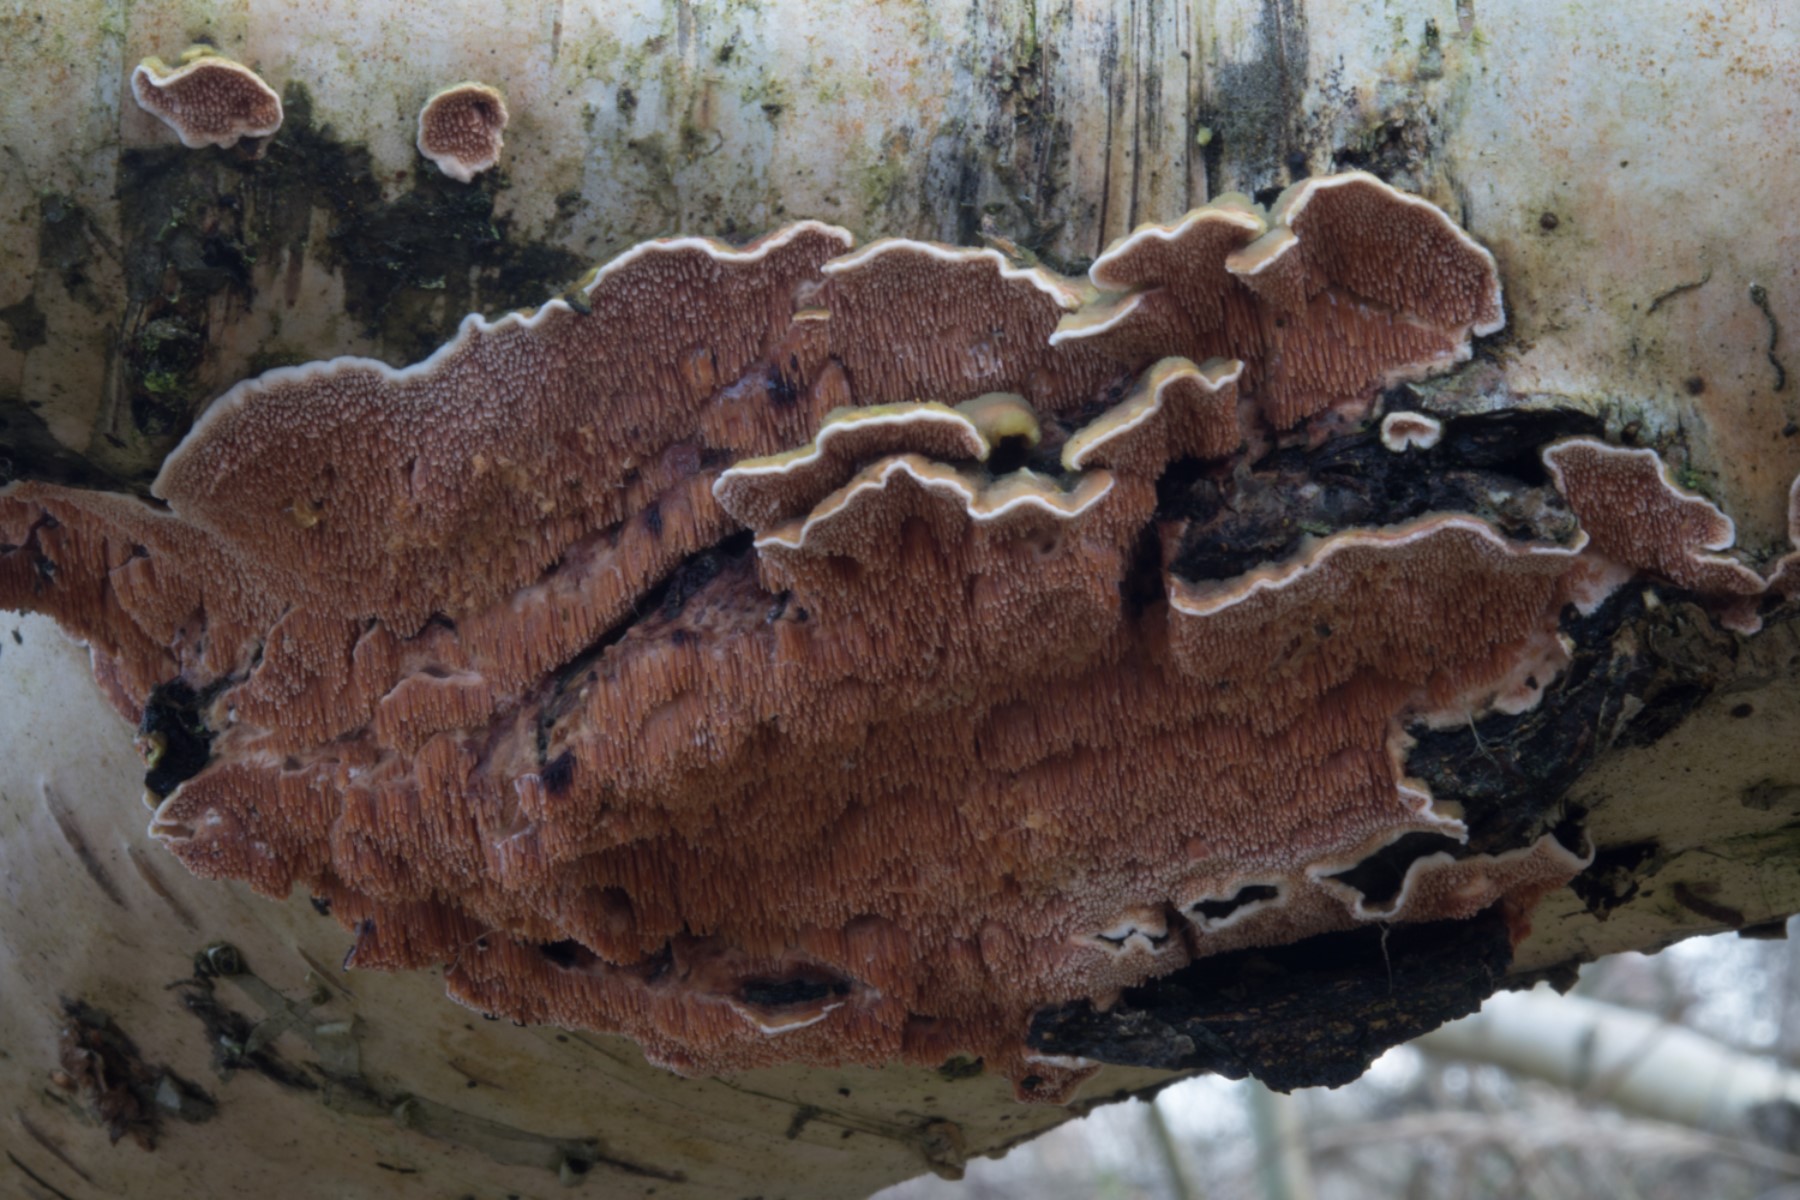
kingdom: Fungi
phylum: Basidiomycota
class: Agaricomycetes
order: Polyporales
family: Steccherinaceae
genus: Steccherinum
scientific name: Steccherinum
